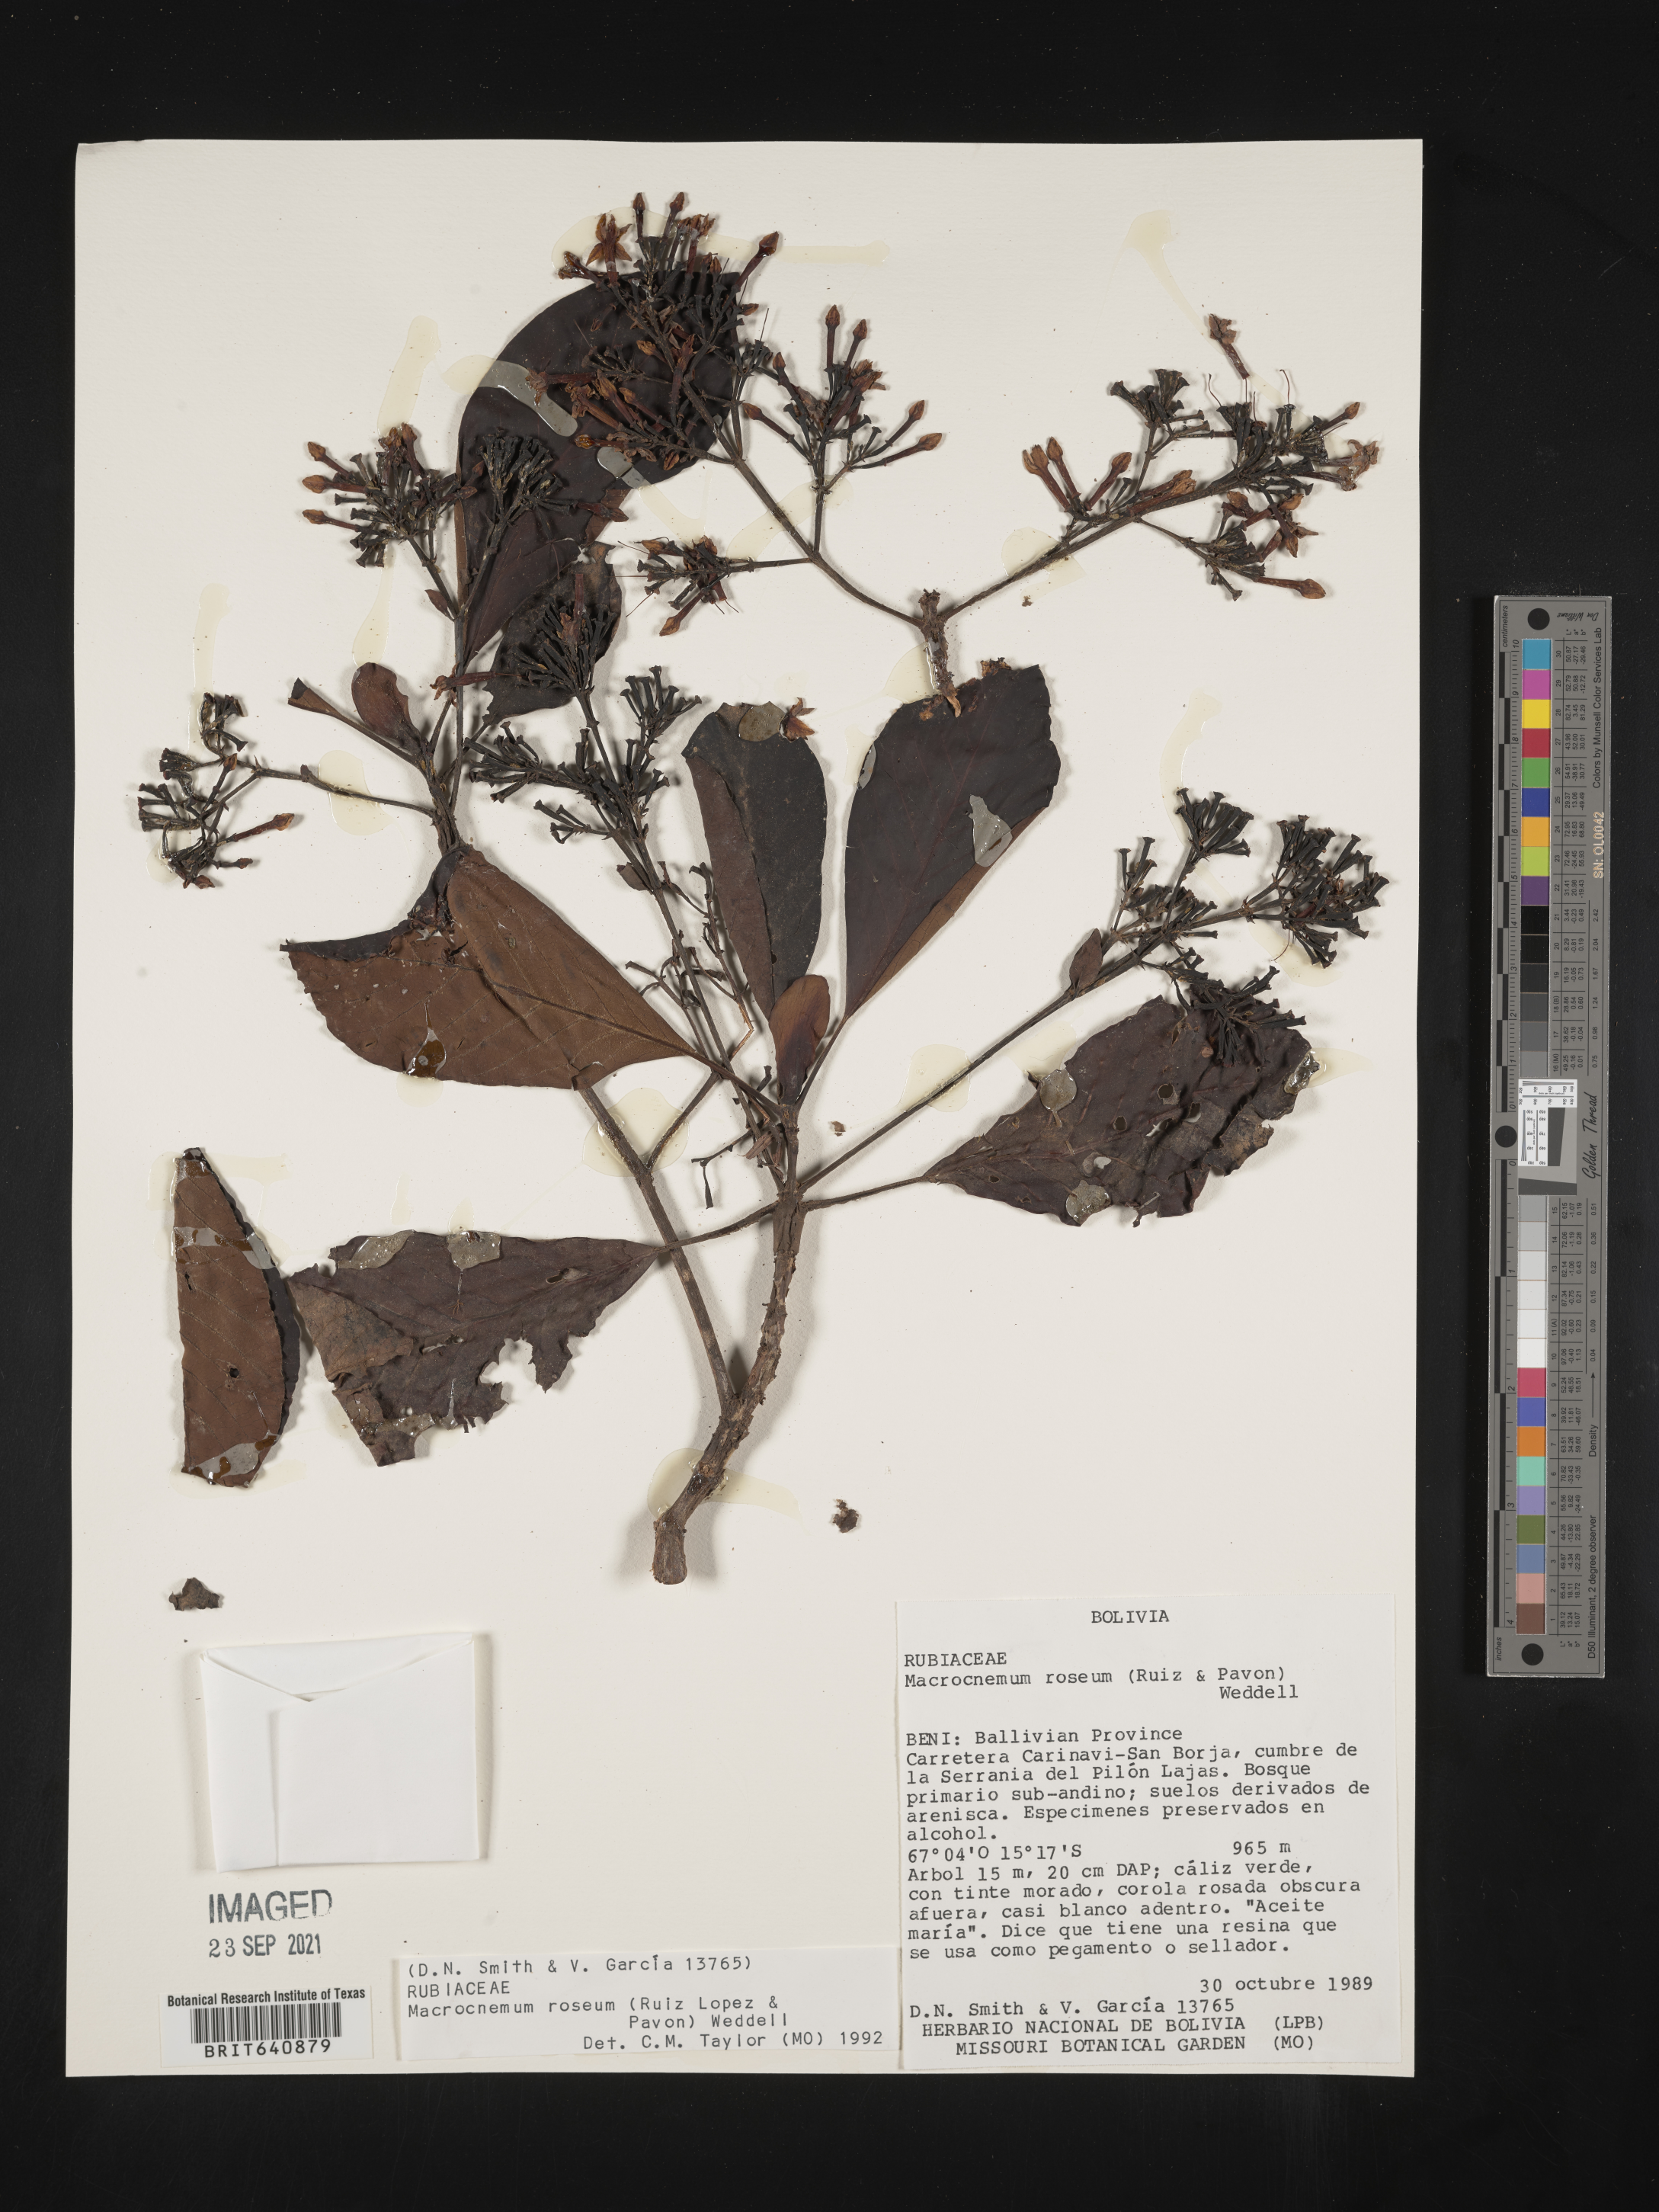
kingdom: Plantae
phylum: Tracheophyta
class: Magnoliopsida
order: Gentianales
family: Rubiaceae
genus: Macrocnemum
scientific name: Macrocnemum
